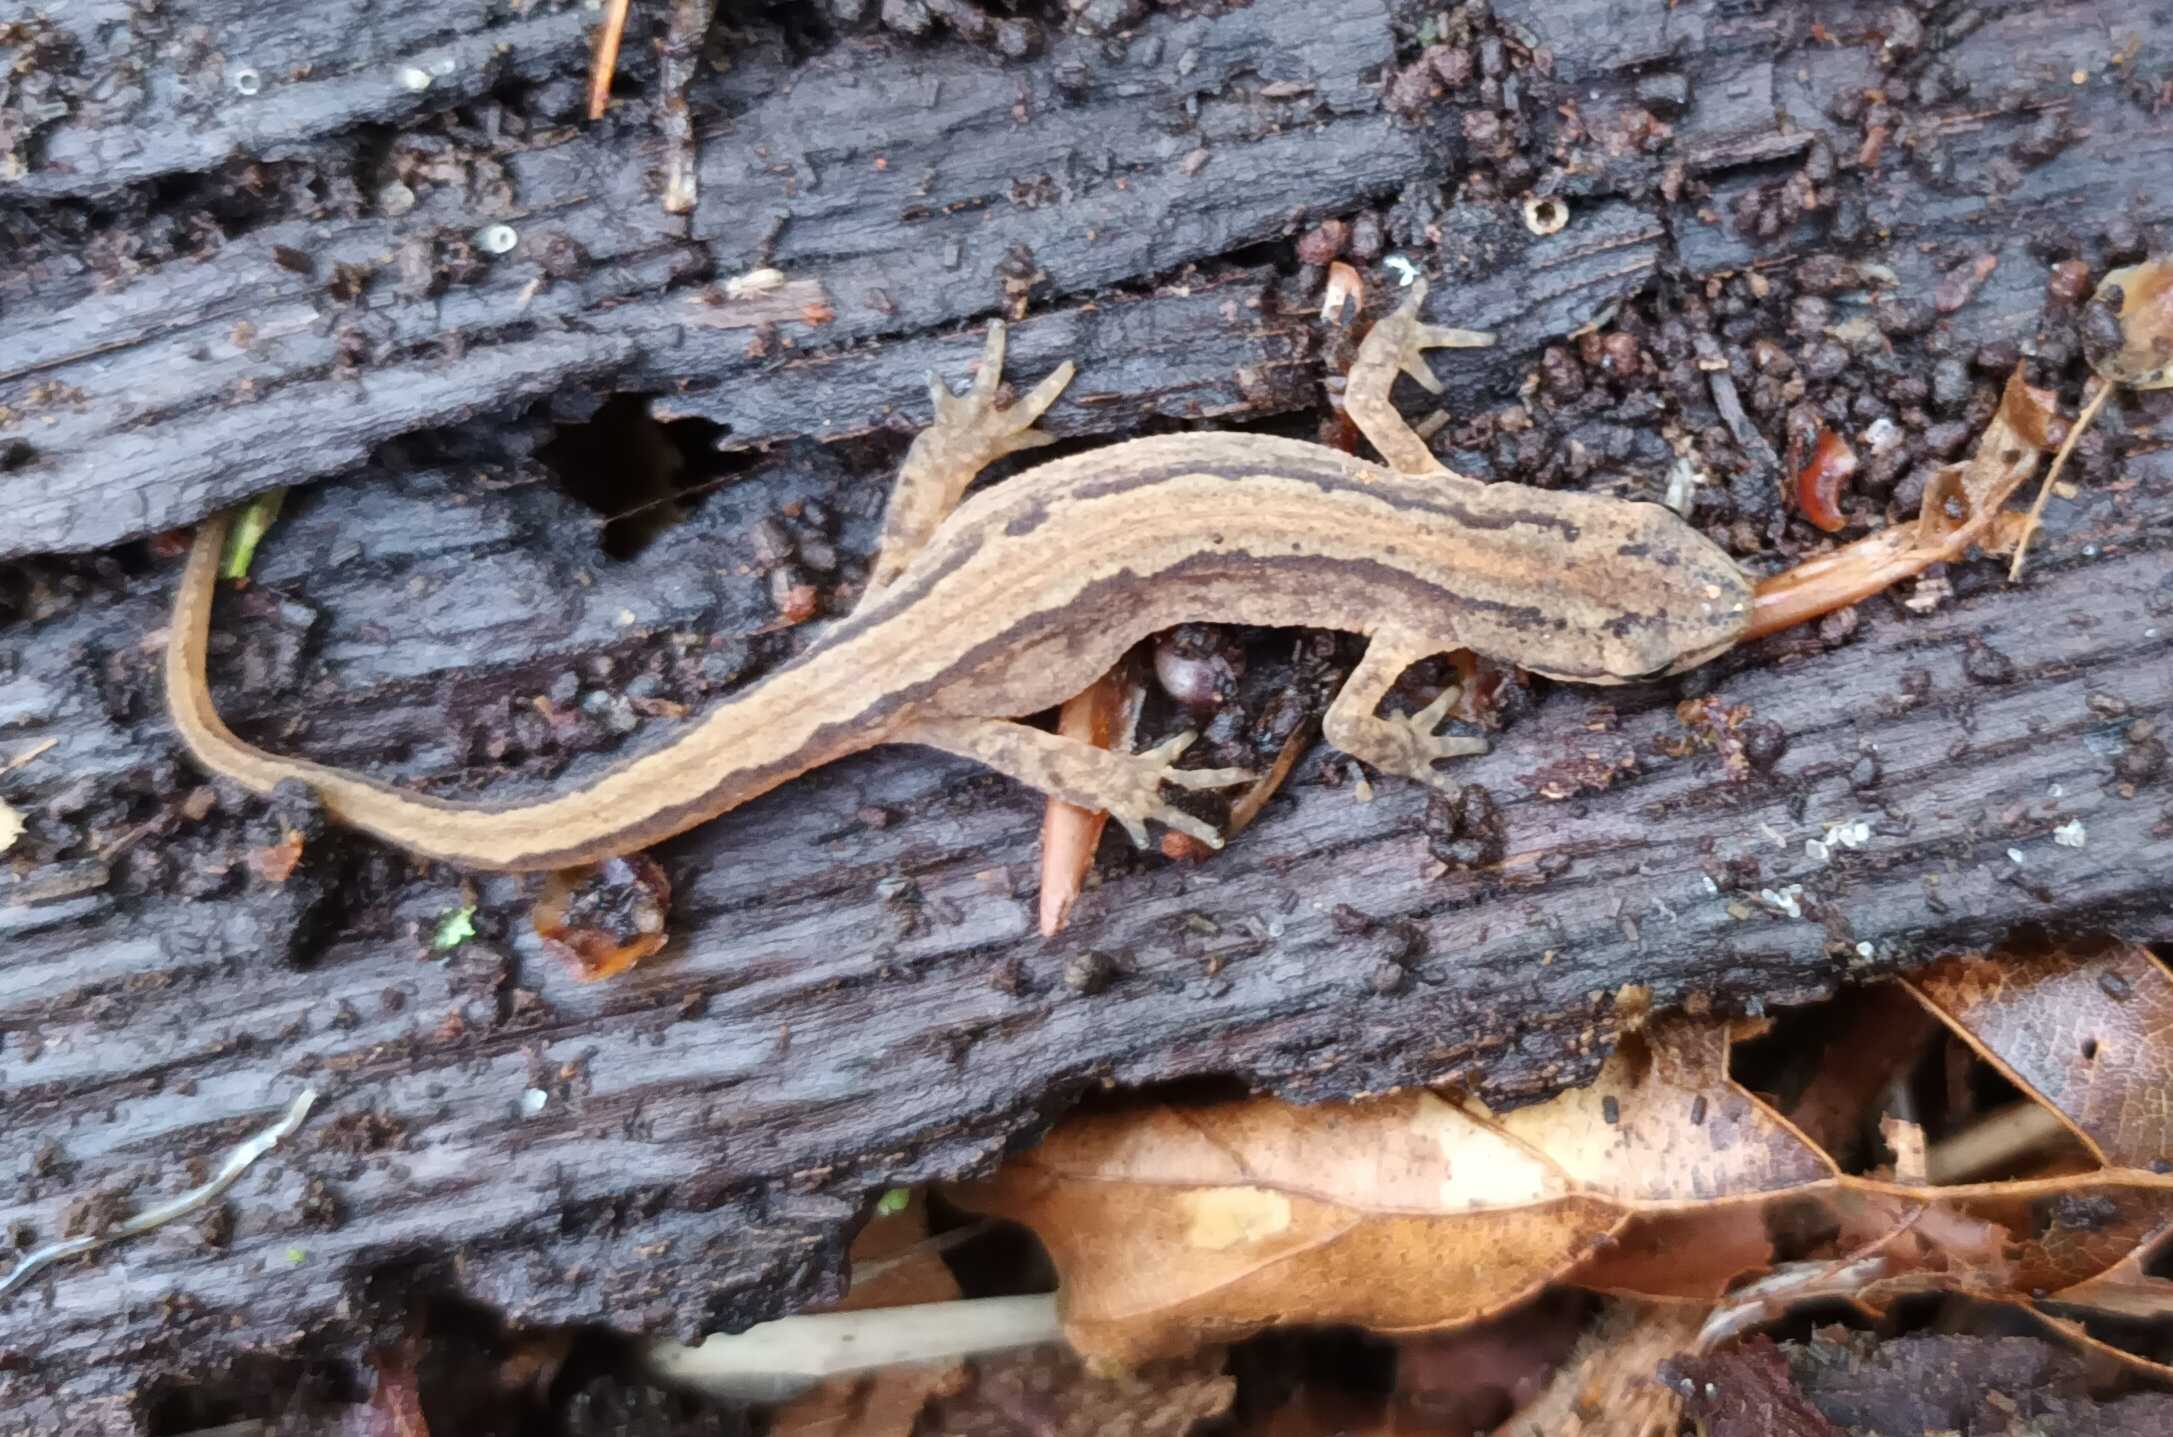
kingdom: Animalia
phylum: Chordata
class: Amphibia
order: Caudata
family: Salamandridae
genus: Lissotriton
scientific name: Lissotriton vulgaris
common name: Lille vandsalamander
